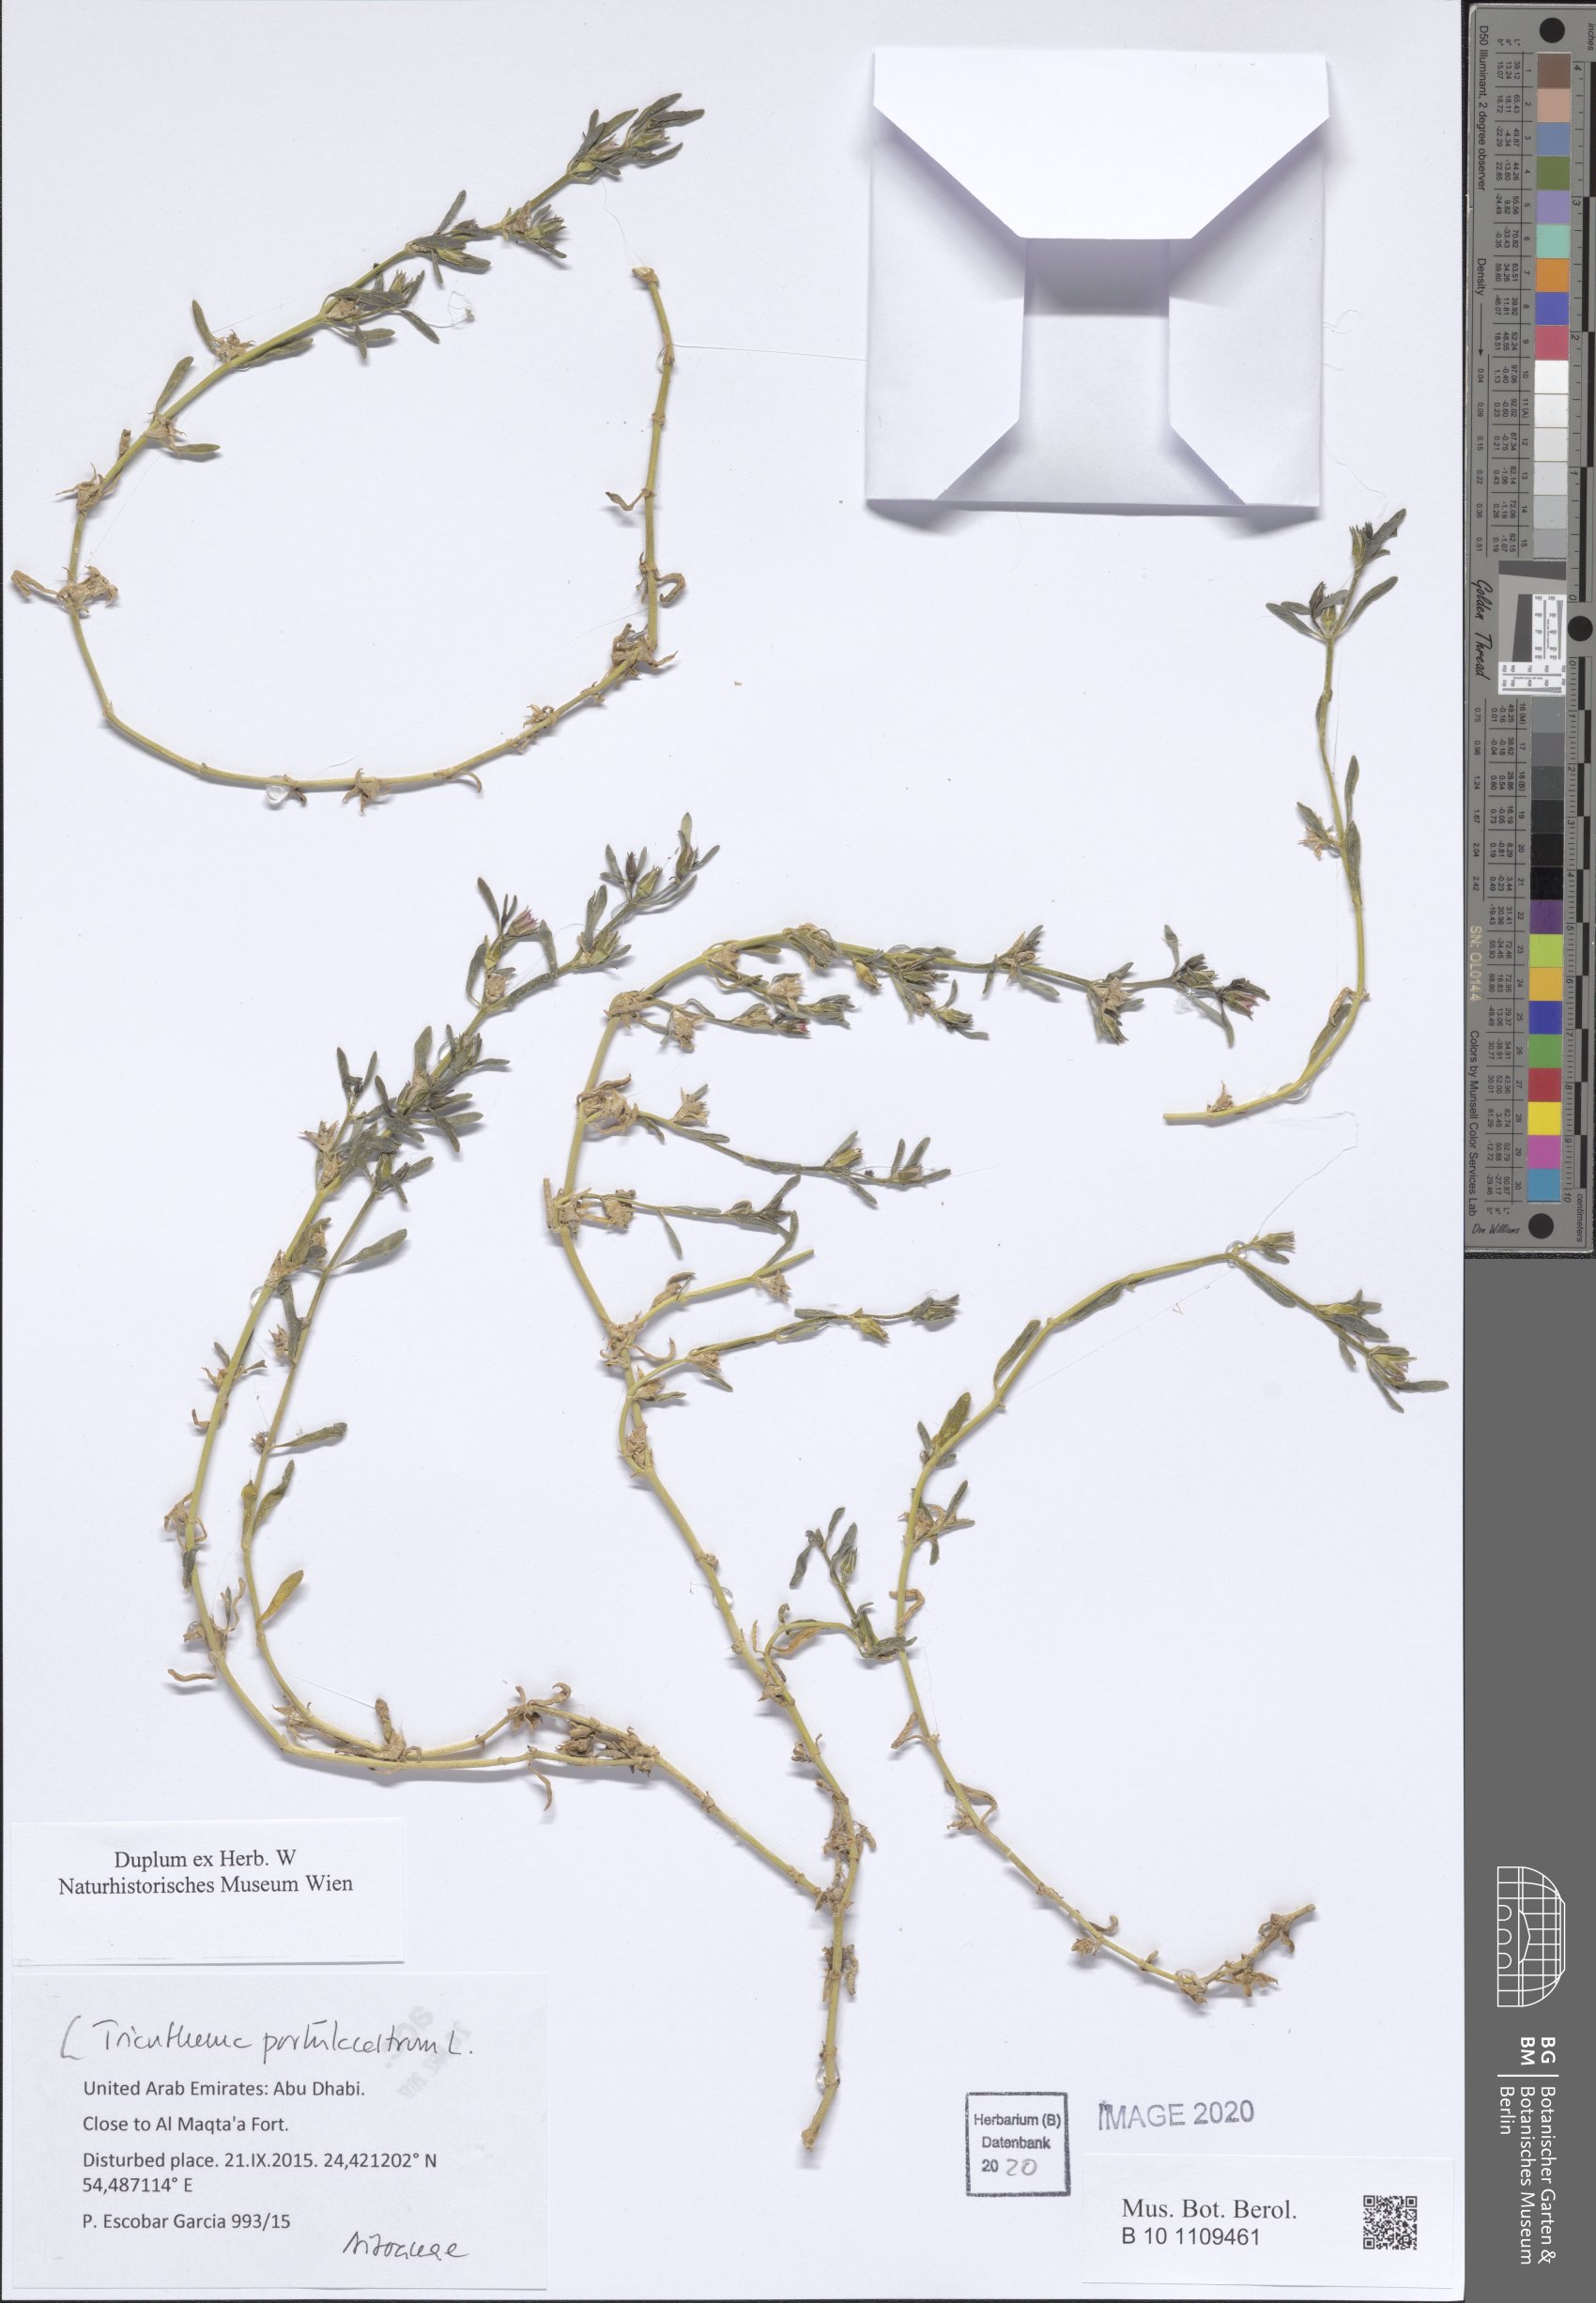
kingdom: Plantae
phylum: Tracheophyta
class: Magnoliopsida
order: Caryophyllales
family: Aizoaceae
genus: Trianthema
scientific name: Trianthema portulacastrum
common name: Desert horsepurslane
